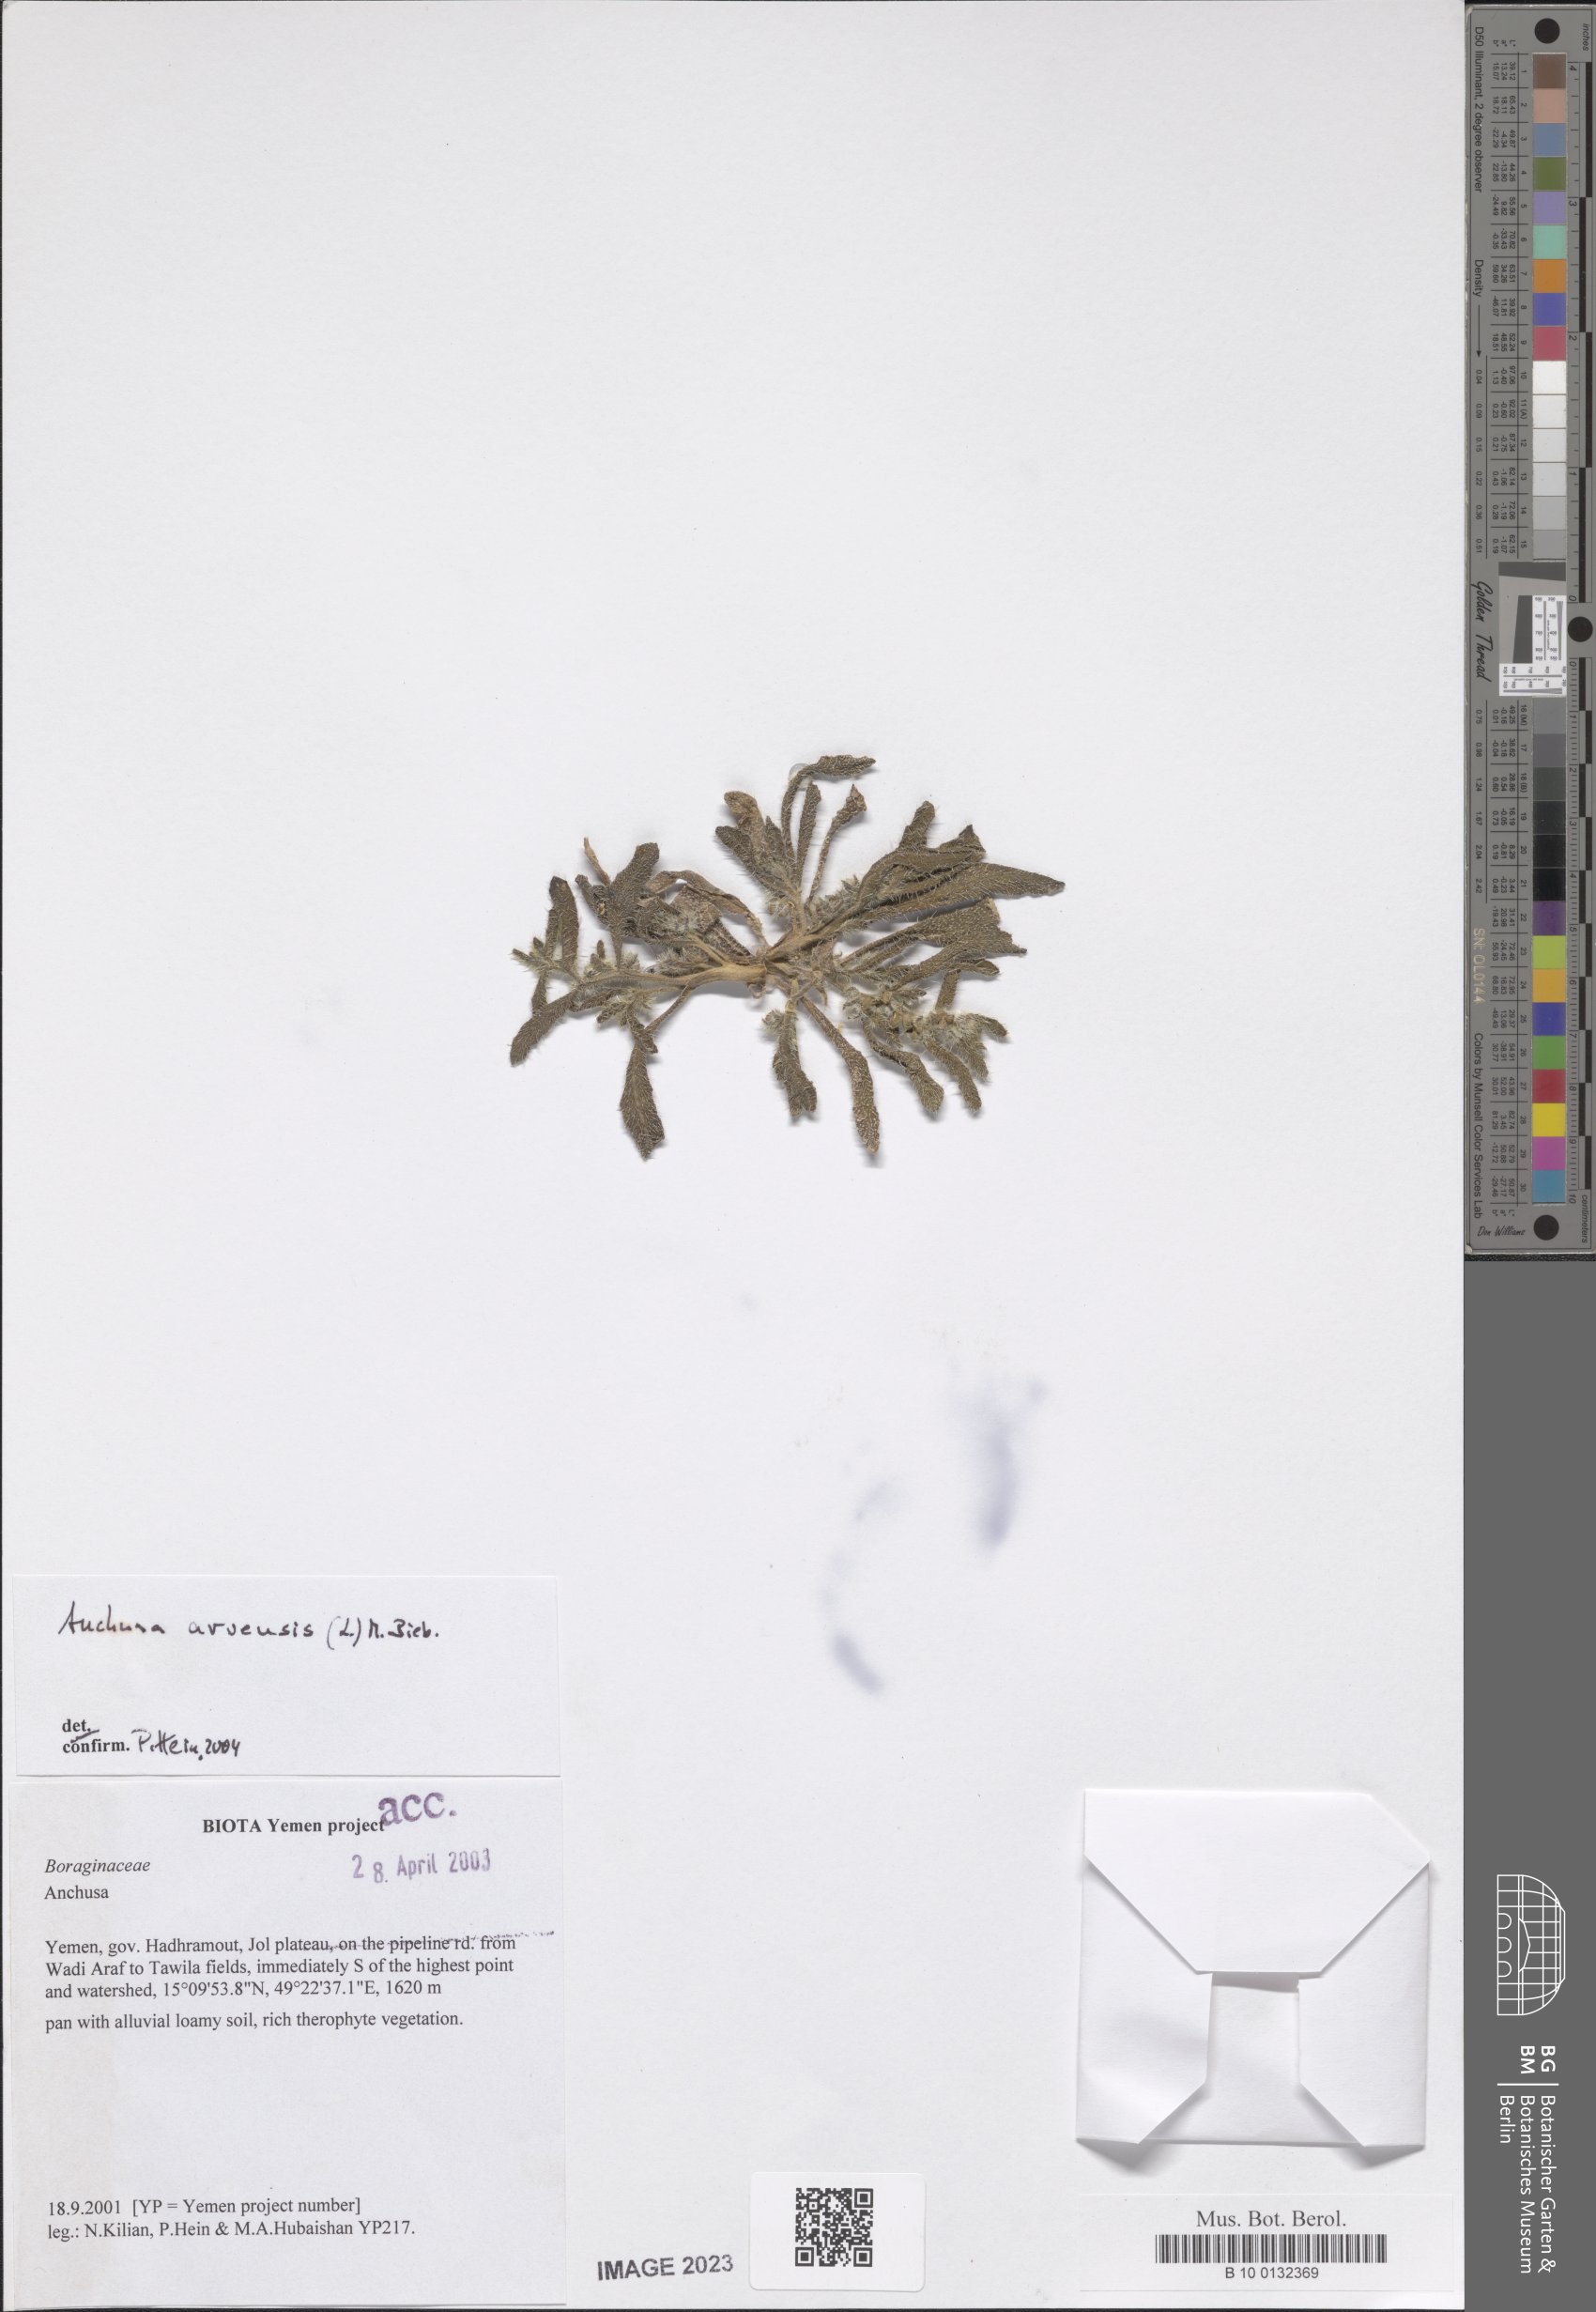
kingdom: Plantae
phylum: Tracheophyta
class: Magnoliopsida
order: Boraginales
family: Boraginaceae
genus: Lycopsis
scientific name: Lycopsis arvensis
